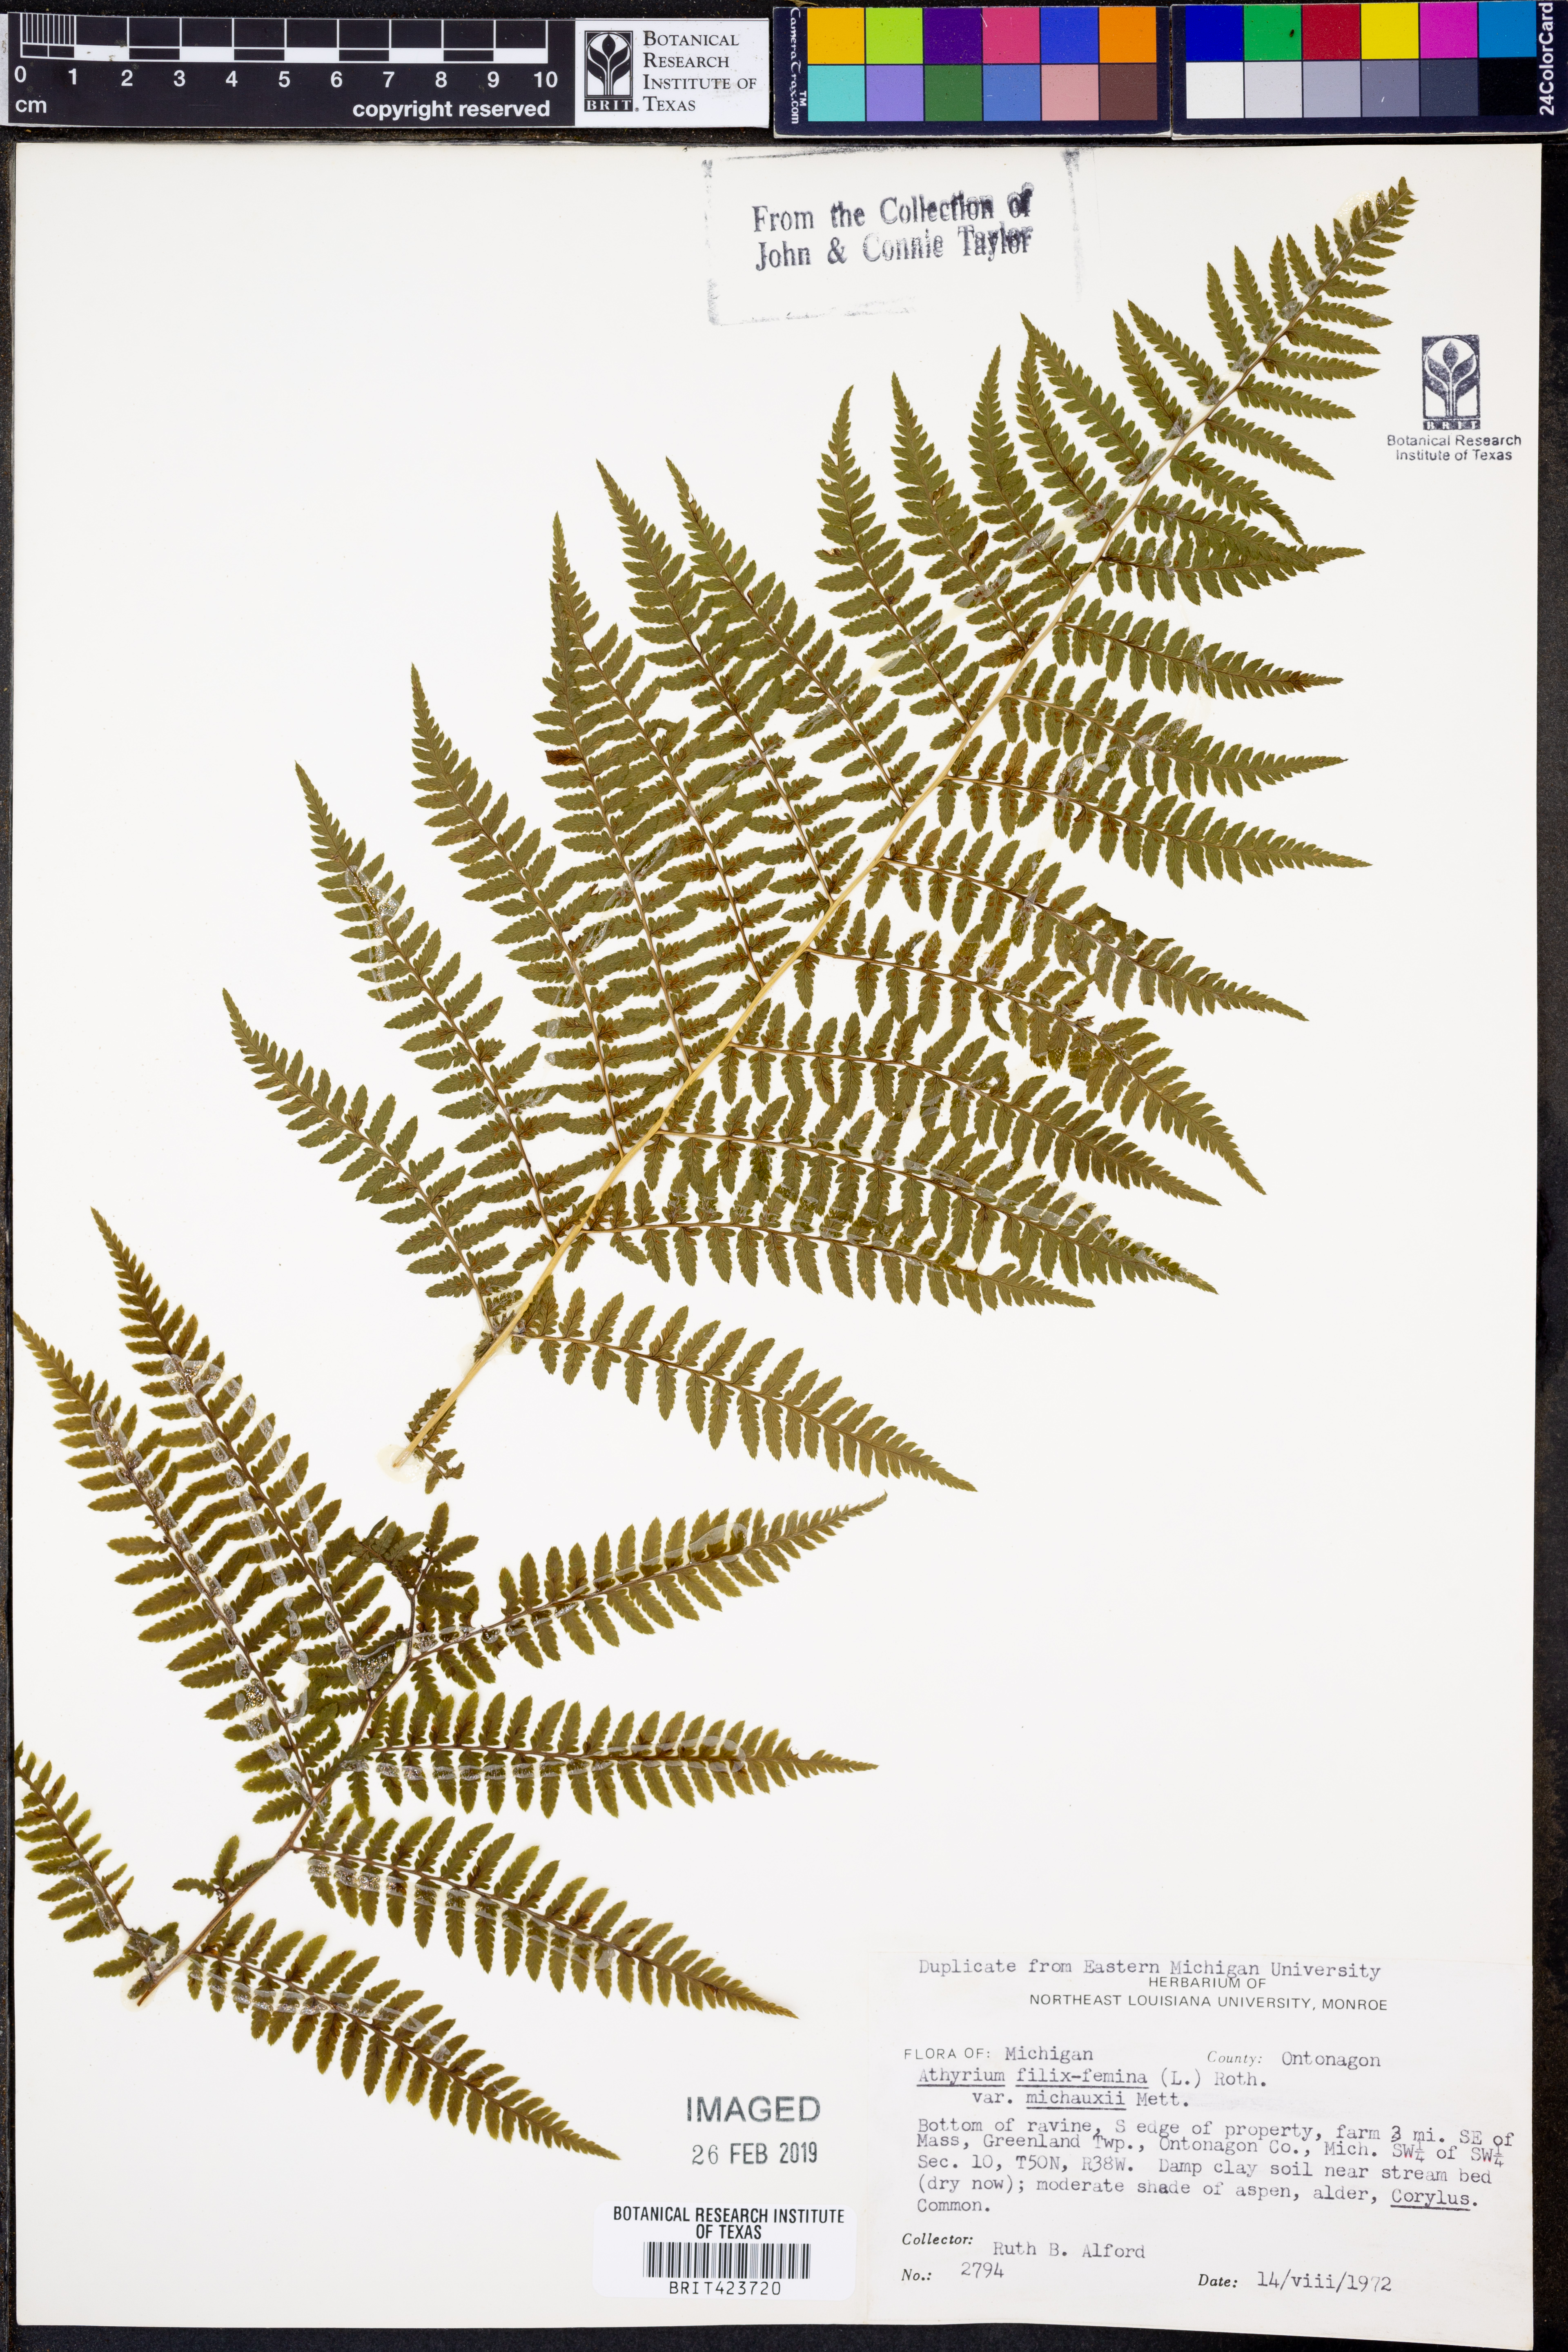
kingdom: Plantae
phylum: Tracheophyta
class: Polypodiopsida
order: Polypodiales
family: Athyriaceae
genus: Athyrium
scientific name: Athyrium angustum
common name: Northern lady fern
